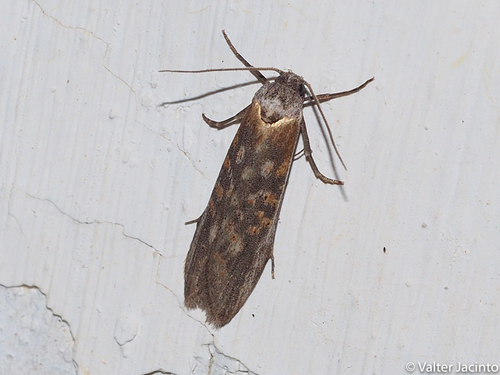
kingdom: Animalia
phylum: Arthropoda
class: Insecta
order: Lepidoptera
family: Tortricidae
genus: Oxypteron
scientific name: Oxypteron schawerdai
